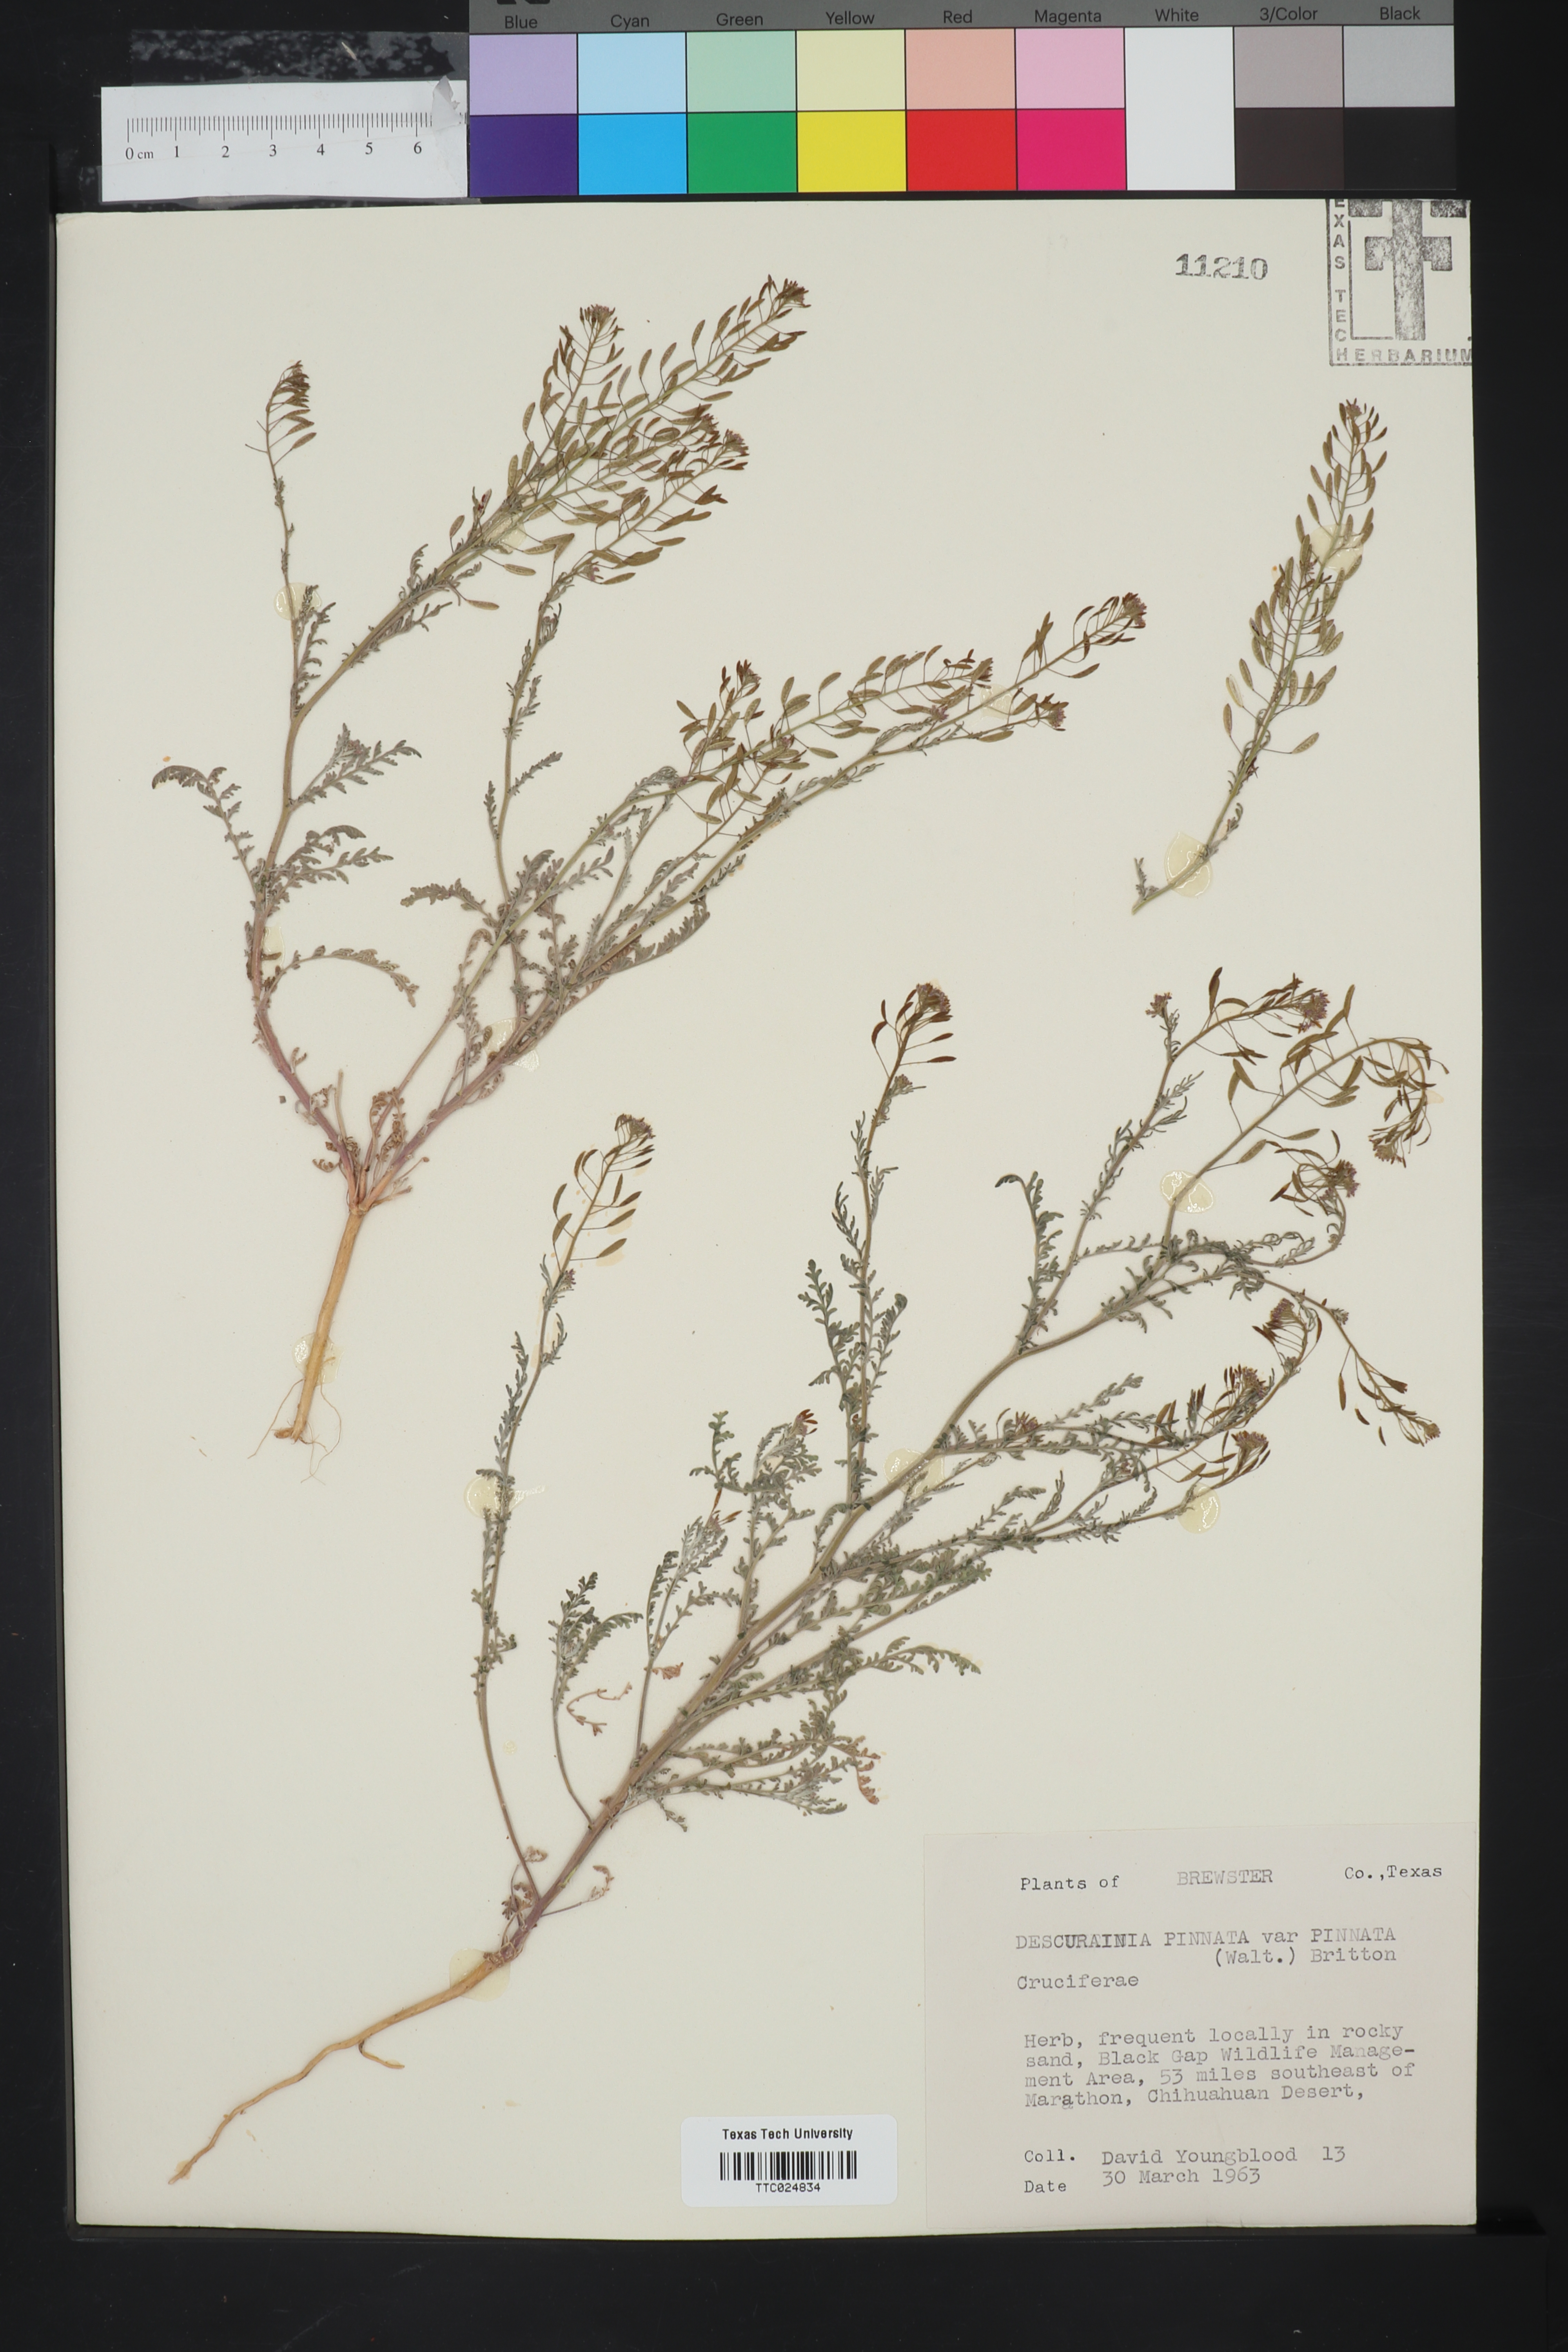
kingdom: Plantae
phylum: Tracheophyta
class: Magnoliopsida
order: Brassicales
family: Brassicaceae
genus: Descurainia
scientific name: Descurainia pinnata
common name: Western tansy mustard
